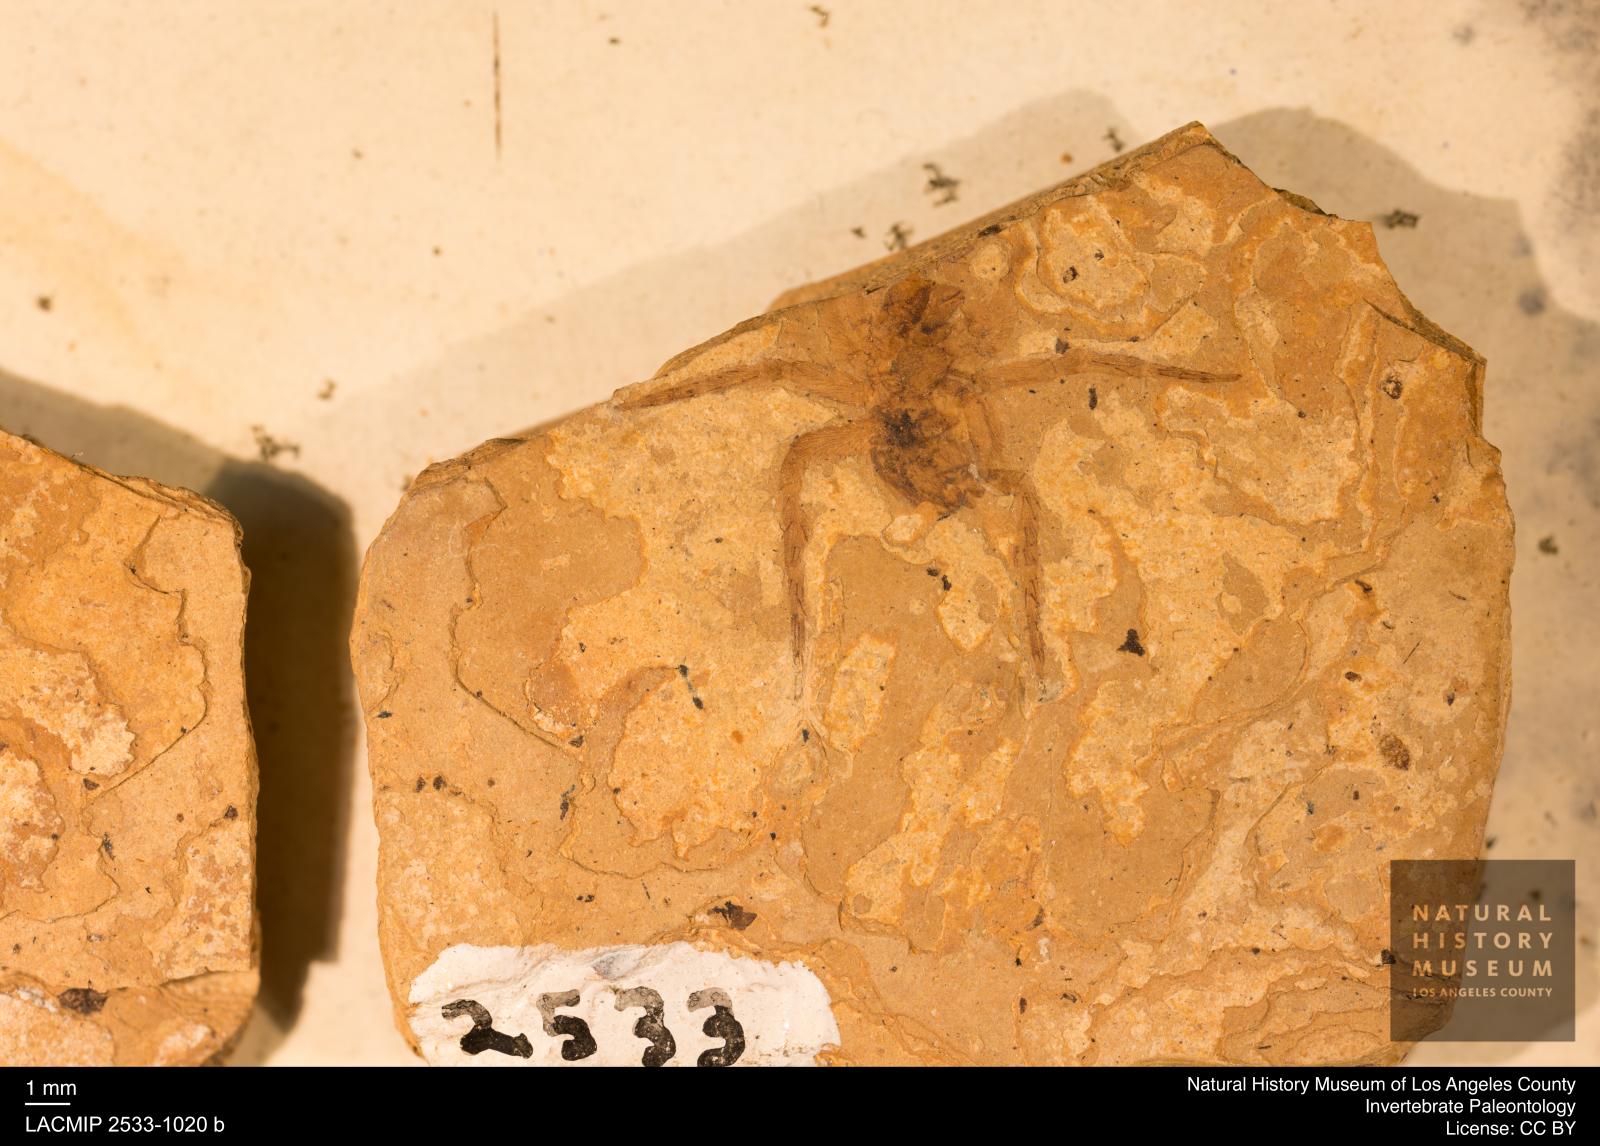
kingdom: Animalia
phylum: Arthropoda
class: Arachnida
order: Araneae
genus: Elvina
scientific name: Elvina Argyroneta antiqua
